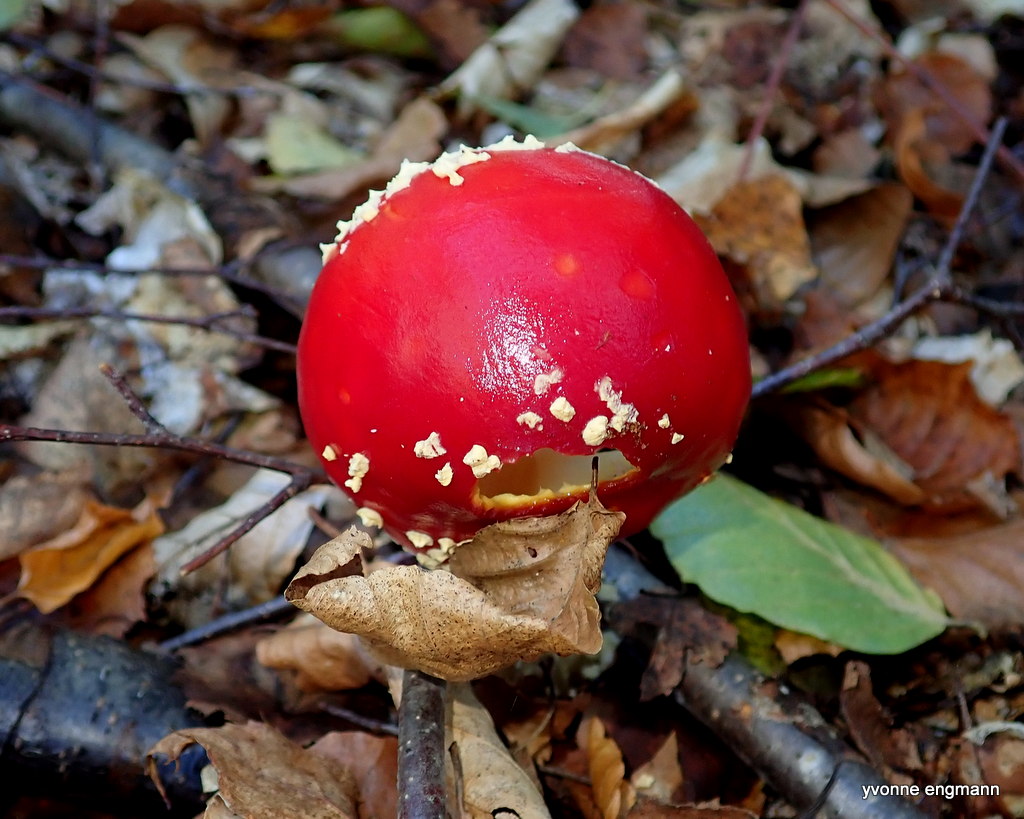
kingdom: Fungi
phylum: Basidiomycota
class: Agaricomycetes
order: Agaricales
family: Amanitaceae
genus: Amanita
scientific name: Amanita muscaria
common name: rød fluesvamp
